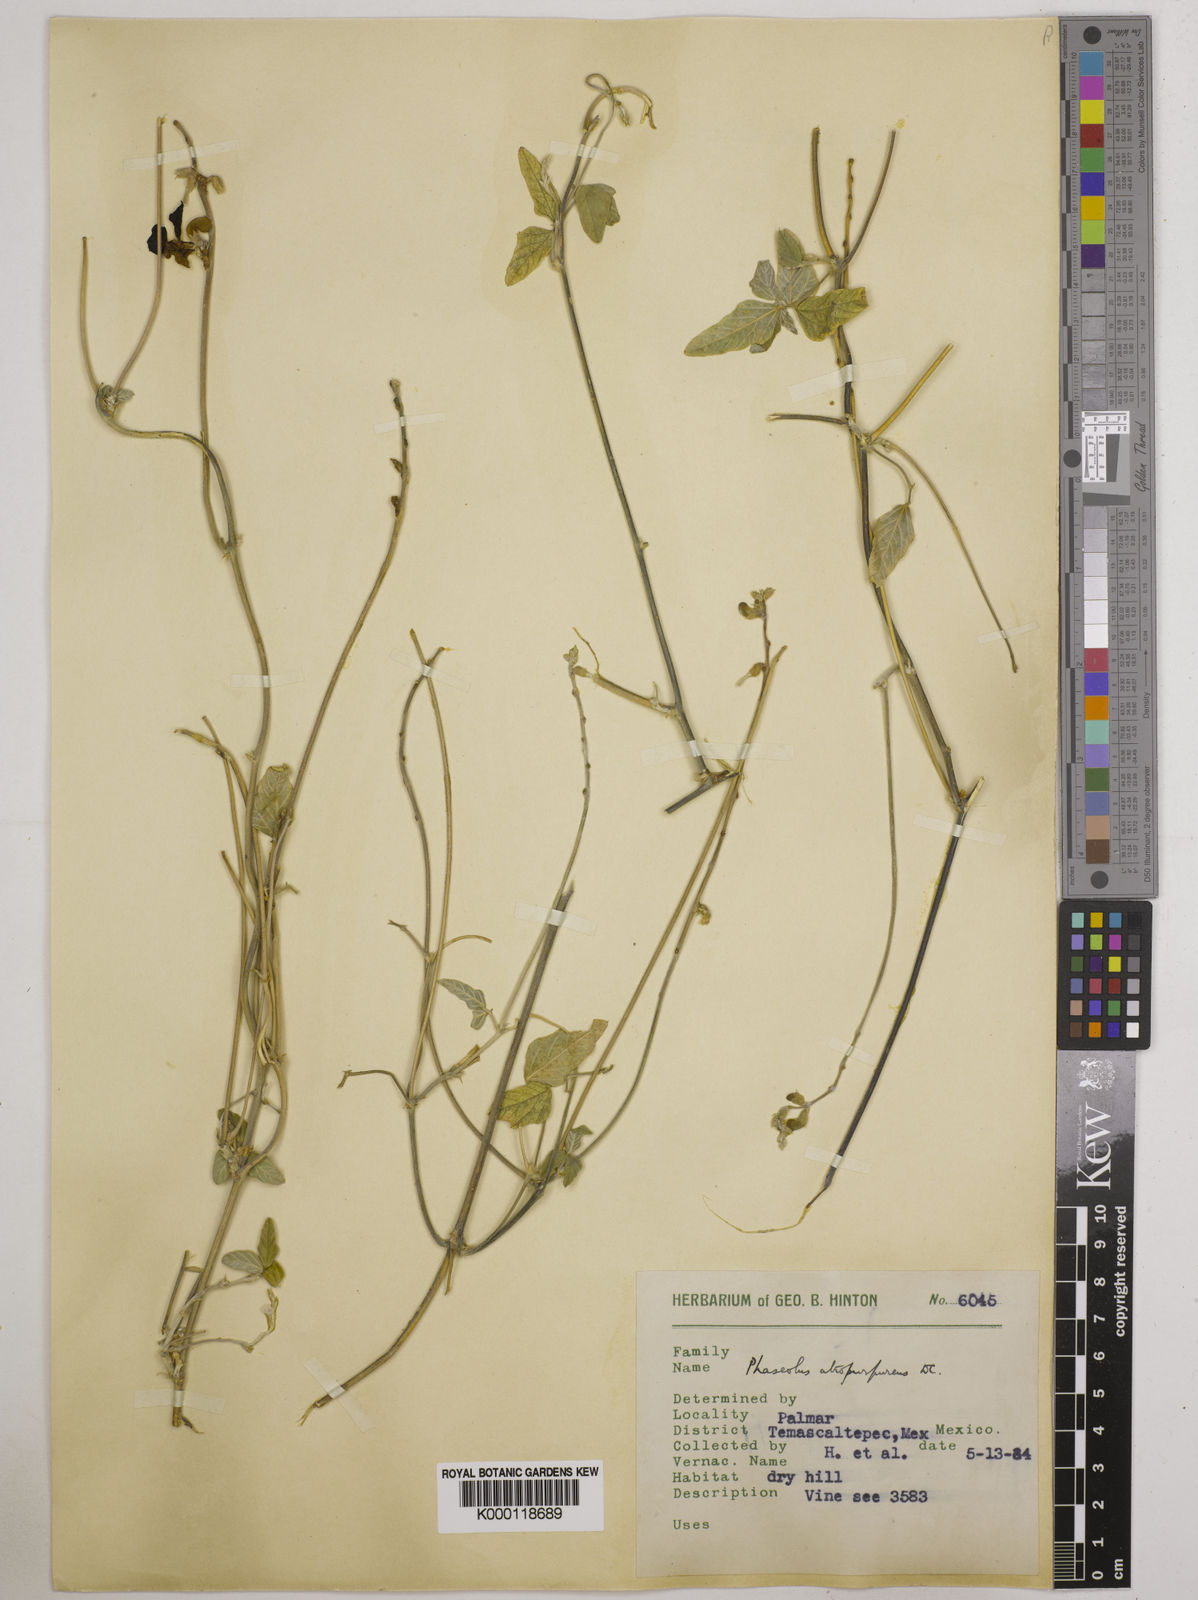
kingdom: Plantae
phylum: Tracheophyta
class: Magnoliopsida
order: Fabales
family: Fabaceae
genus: Macroptilium
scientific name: Macroptilium atropurpureum
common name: Purple bushbean
